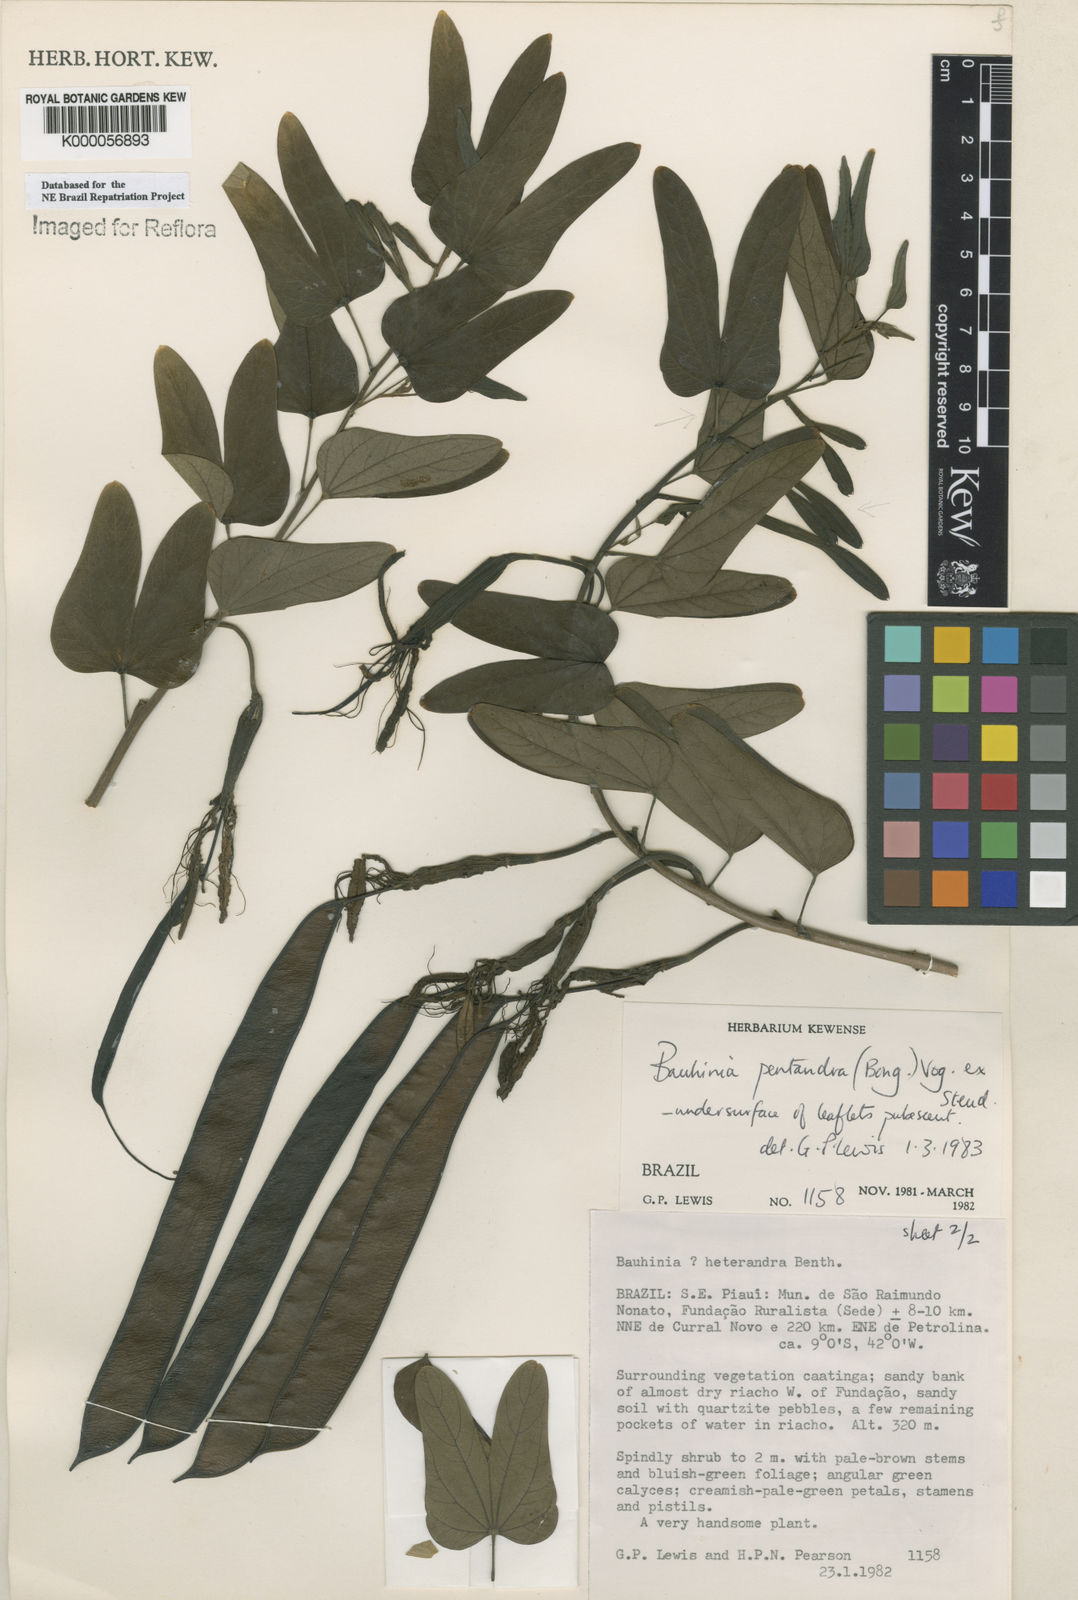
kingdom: Plantae
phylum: Tracheophyta
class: Magnoliopsida
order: Fabales
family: Fabaceae
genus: Bauhinia
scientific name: Bauhinia
